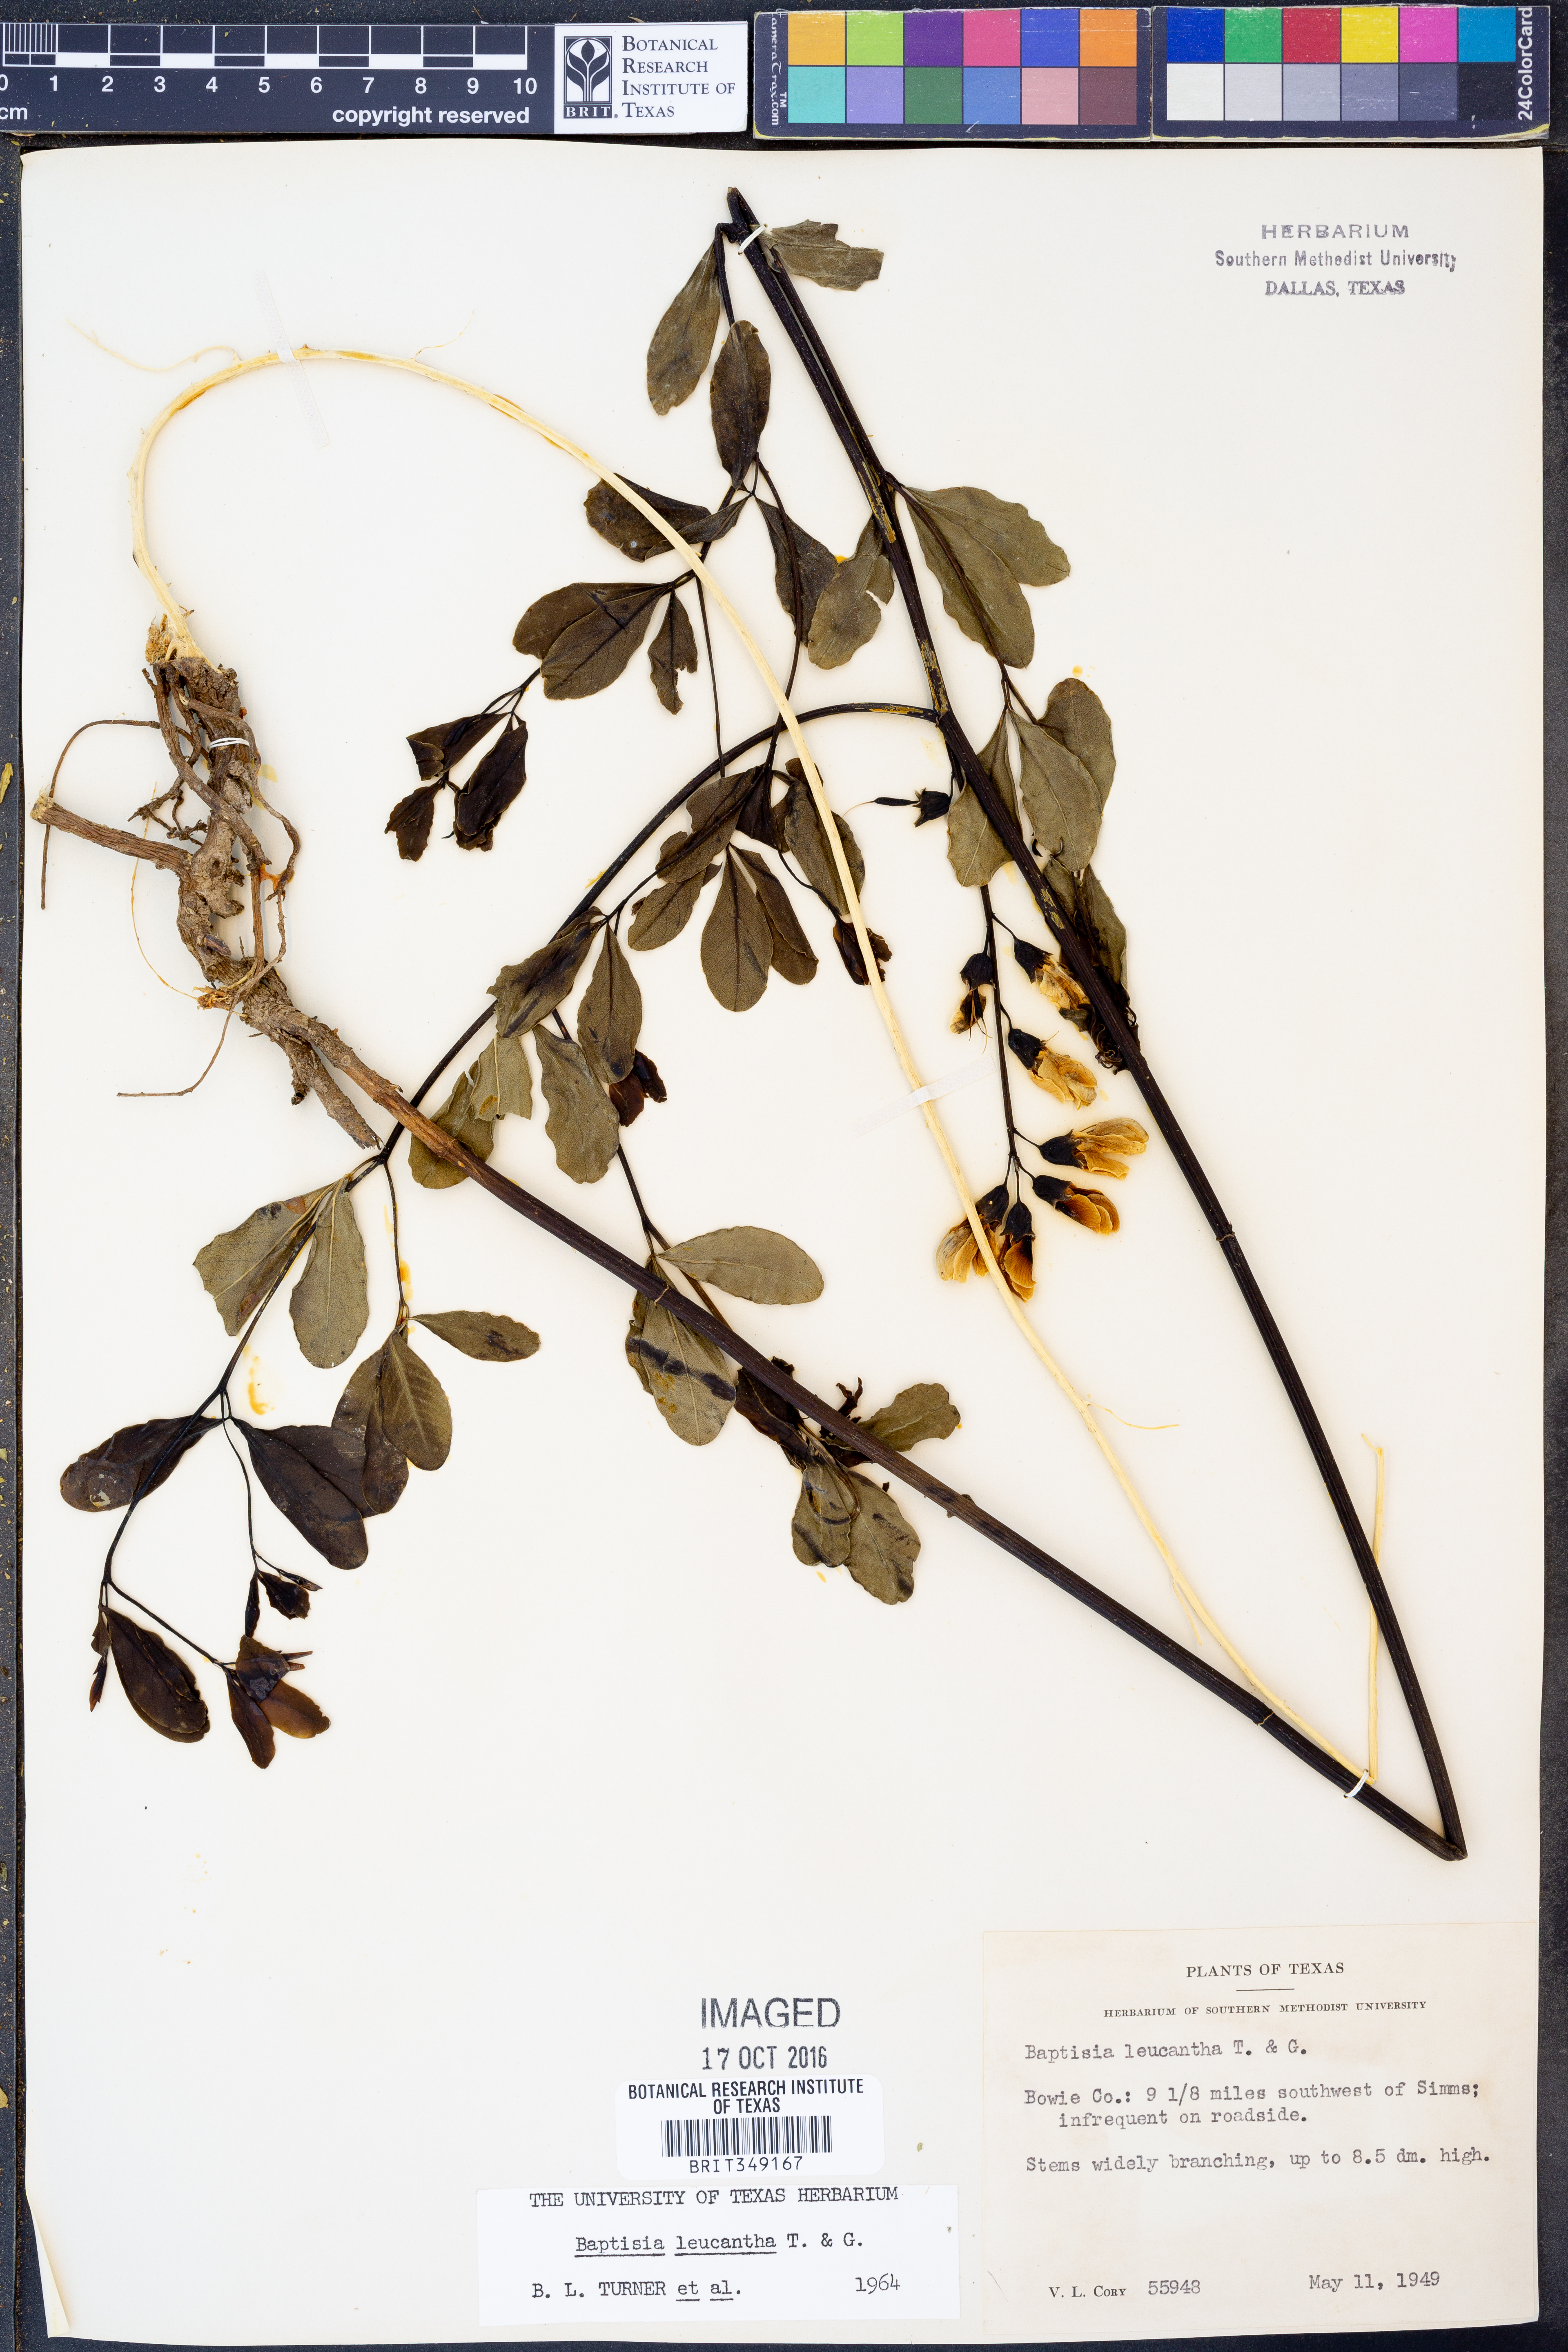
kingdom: Plantae
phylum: Tracheophyta
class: Magnoliopsida
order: Fabales
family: Fabaceae
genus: Baptisia
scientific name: Baptisia alba
